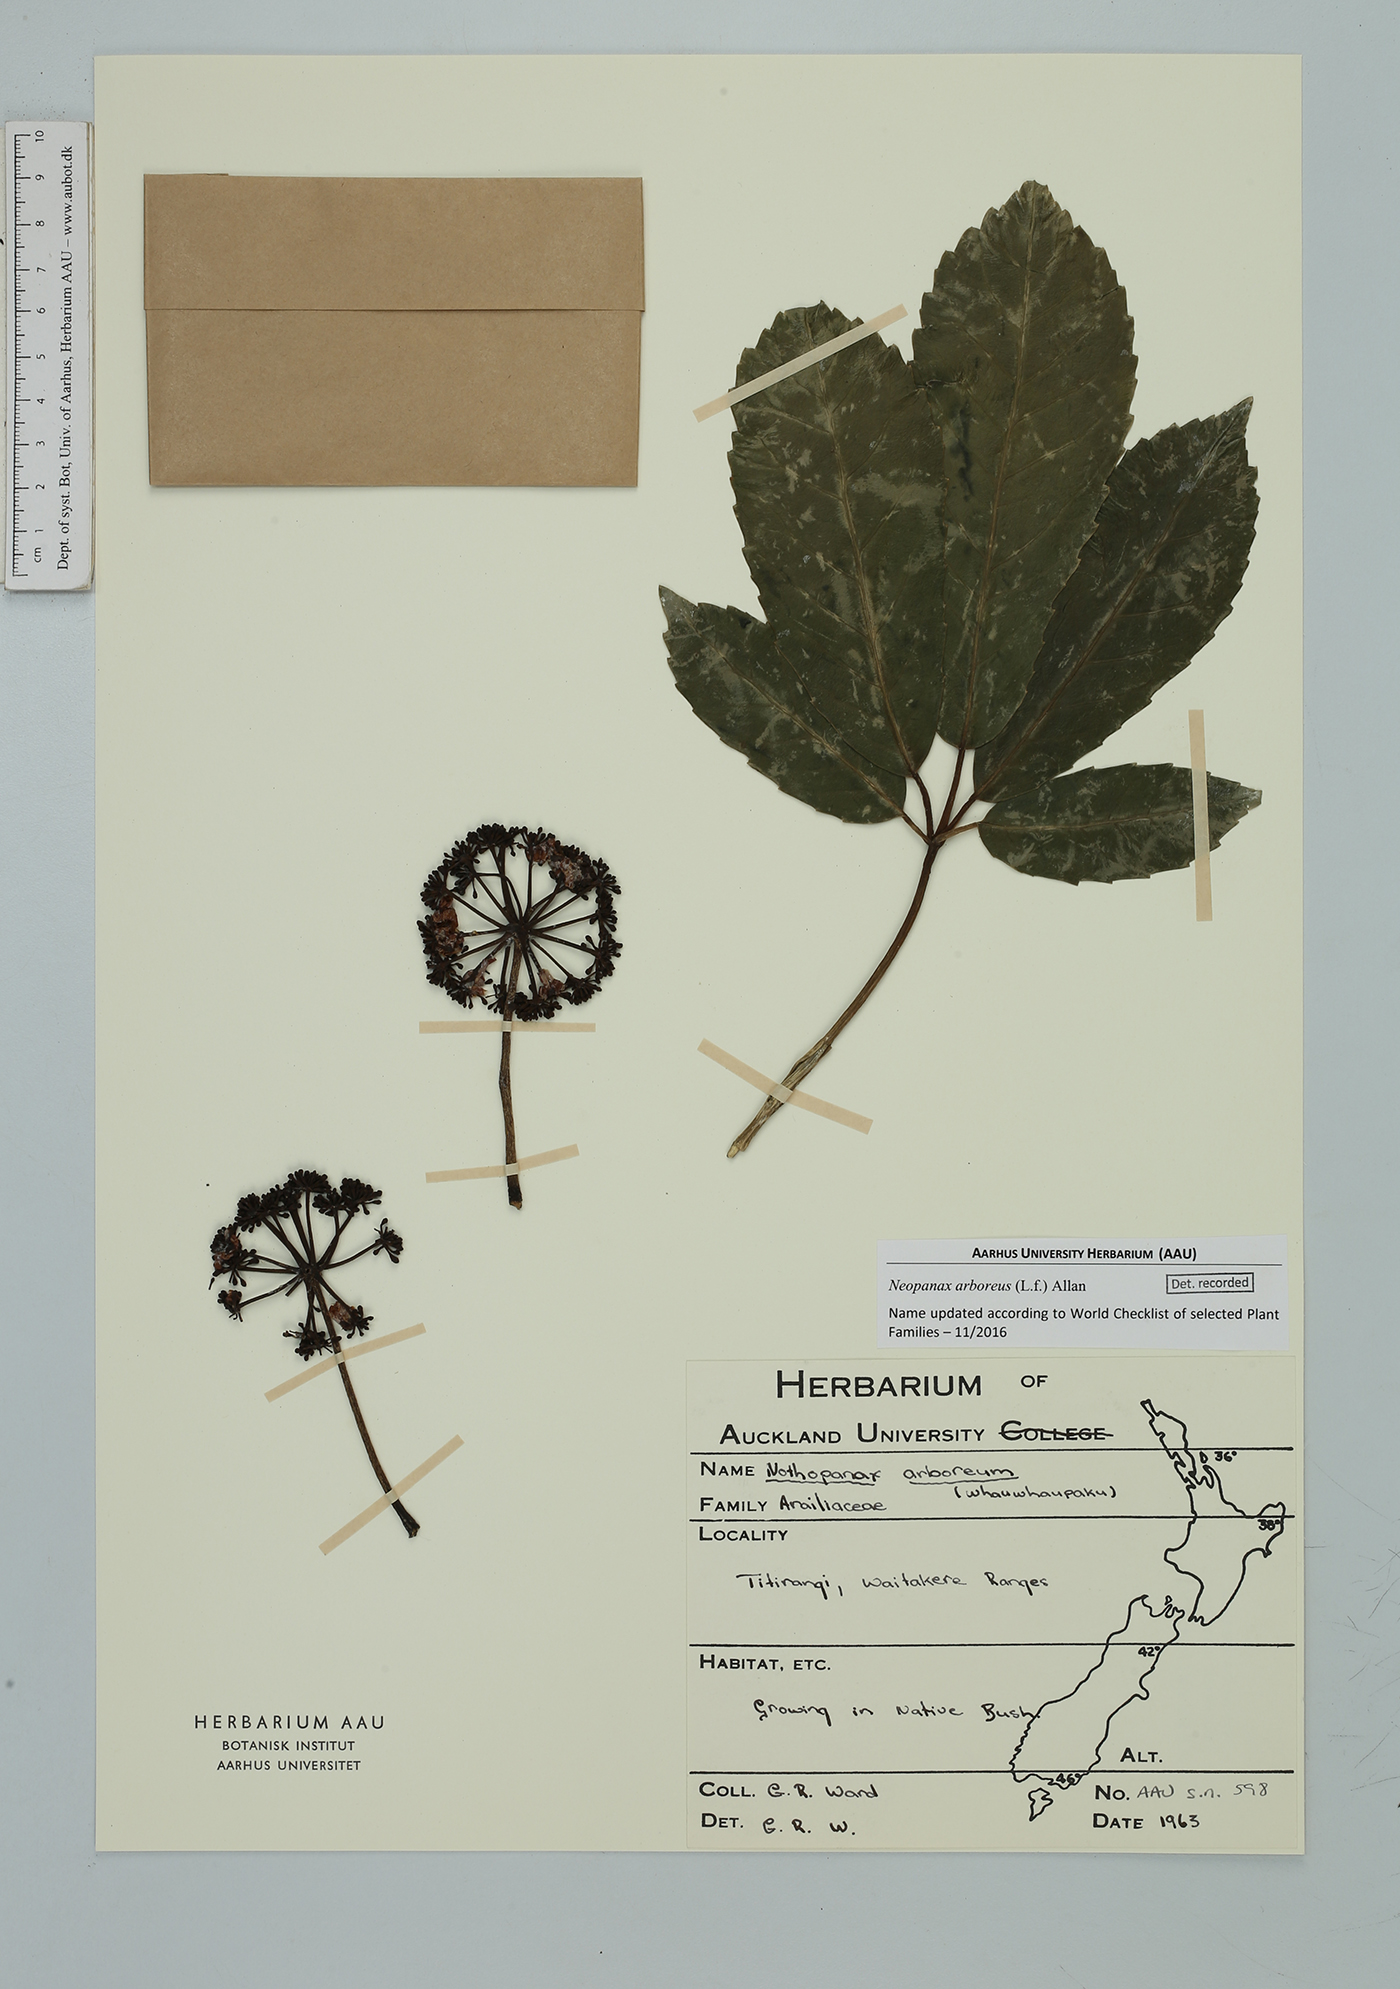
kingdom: Plantae
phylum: Tracheophyta
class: Magnoliopsida
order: Apiales
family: Araliaceae
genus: Neopanax
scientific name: Neopanax arboreus
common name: Five-fingers
